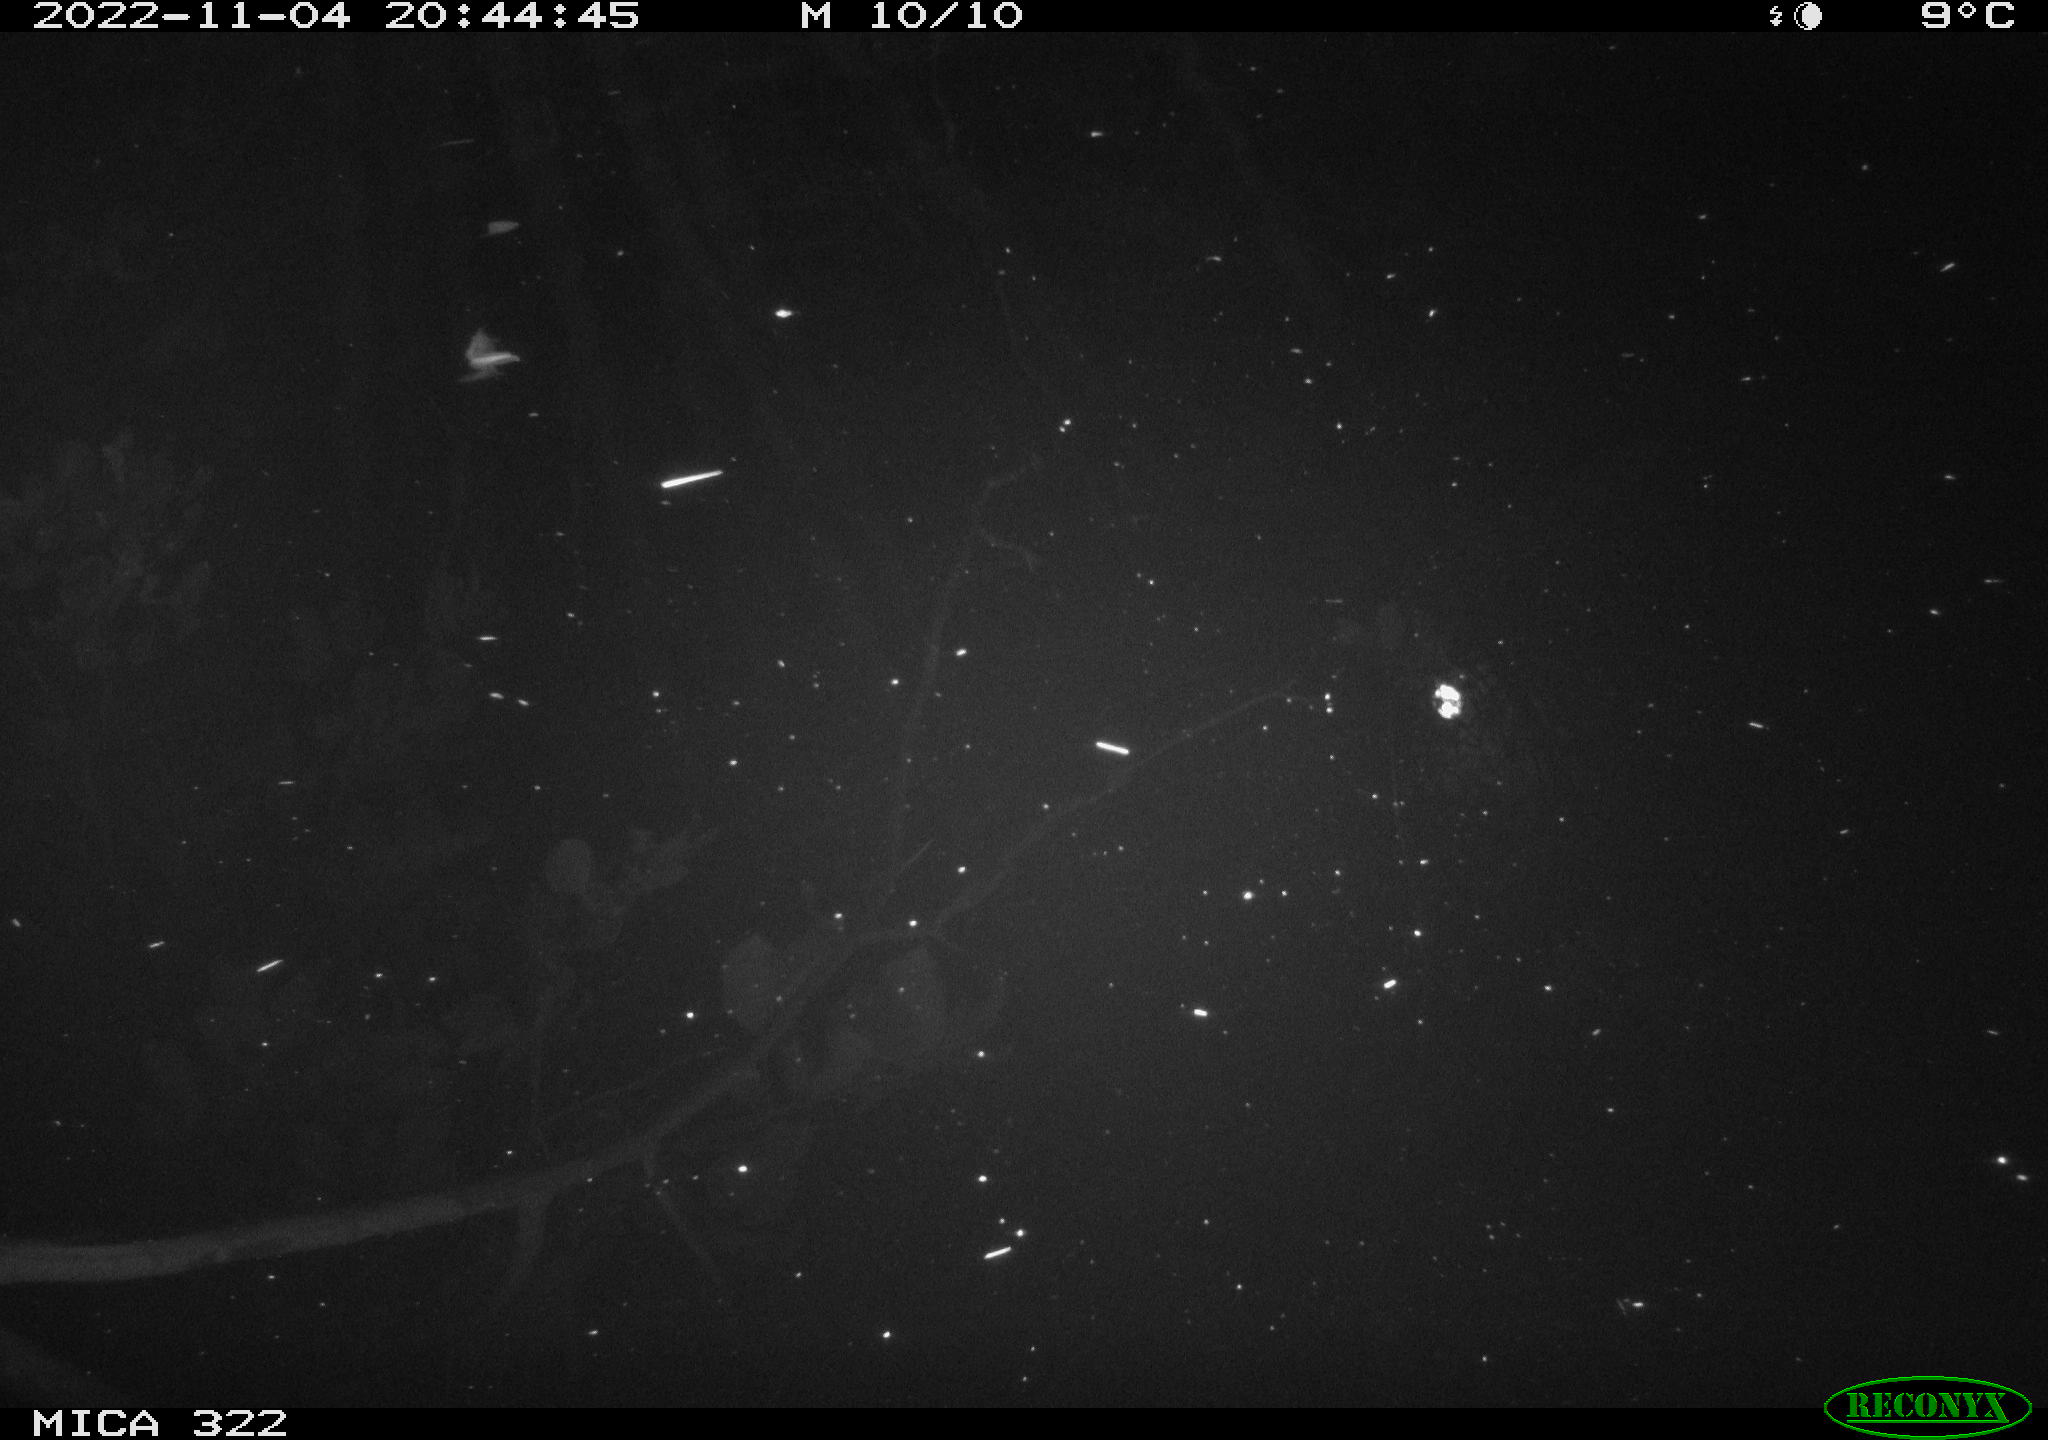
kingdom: Animalia
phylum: Chordata
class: Mammalia
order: Rodentia
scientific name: Rodentia
